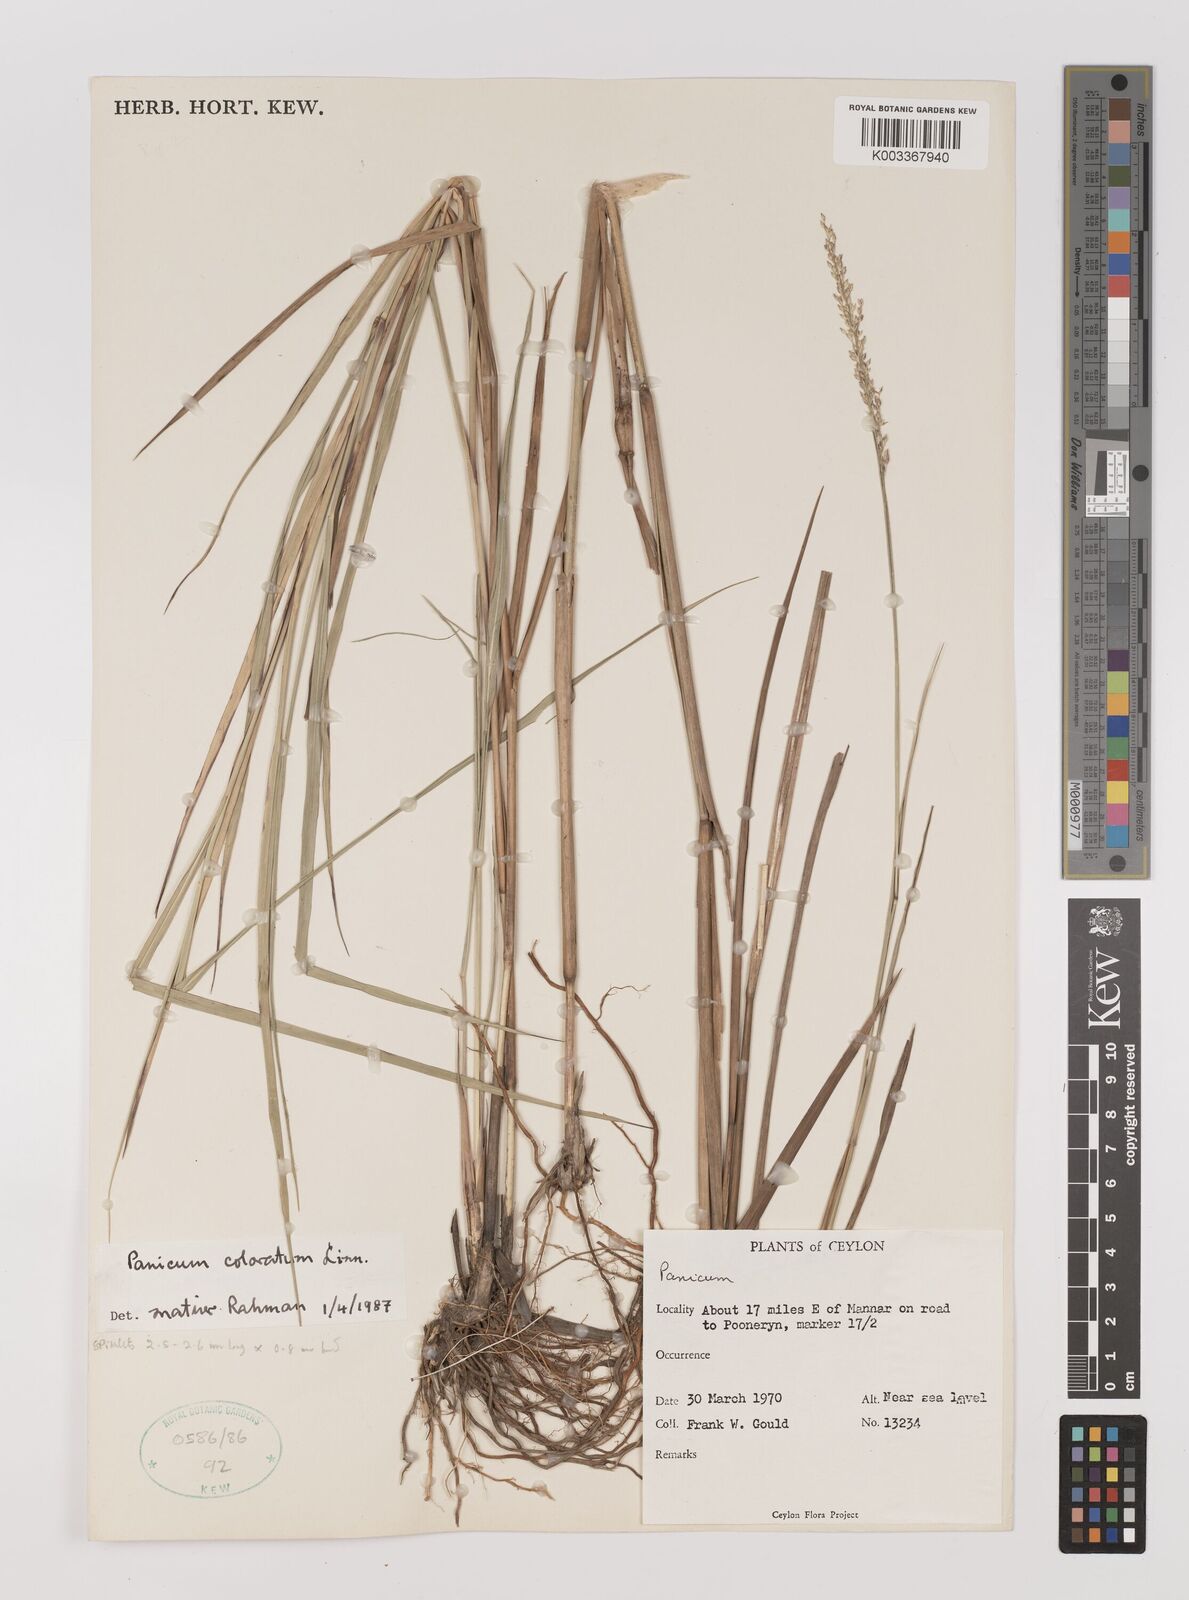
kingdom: Plantae
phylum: Tracheophyta
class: Liliopsida
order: Poales
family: Poaceae
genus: Panicum
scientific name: Panicum phoiniclados
